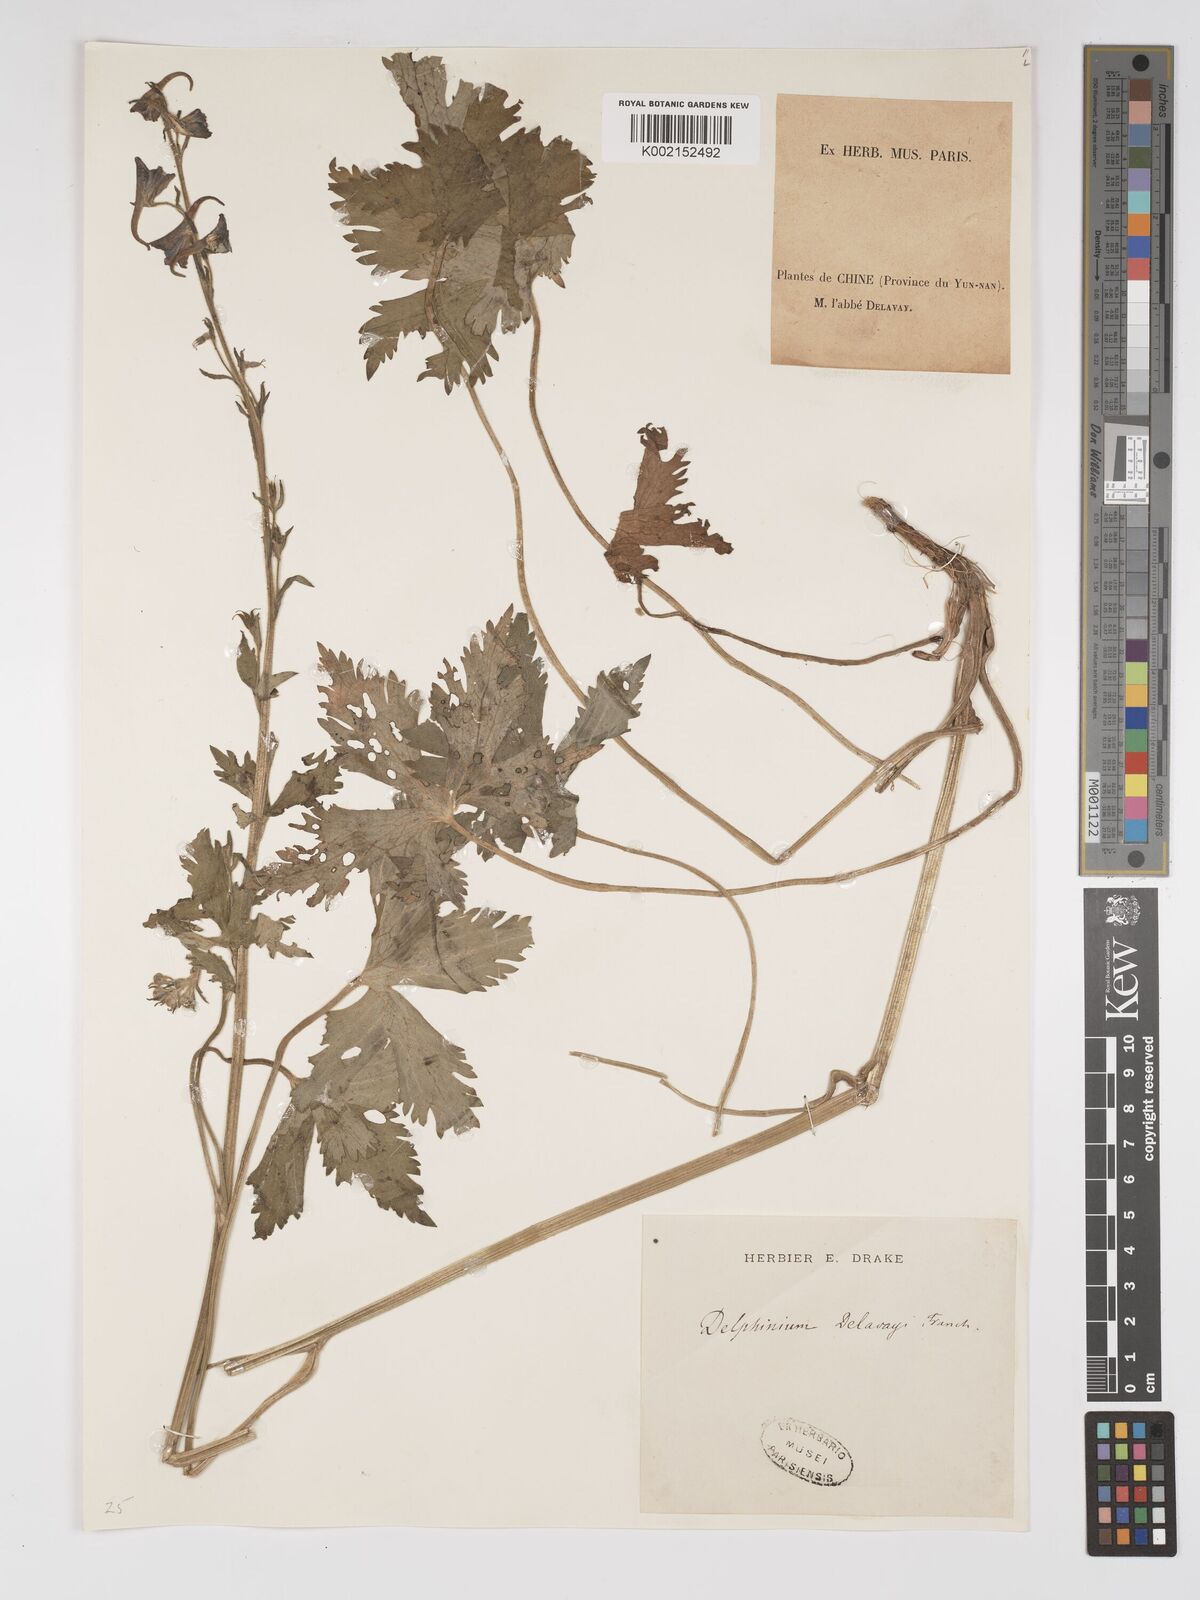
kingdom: Plantae
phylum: Tracheophyta
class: Magnoliopsida
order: Ranunculales
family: Ranunculaceae
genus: Delphinium
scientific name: Delphinium delavayi
